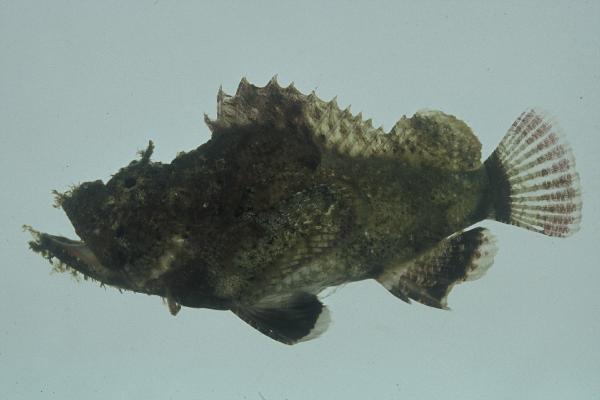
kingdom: Animalia
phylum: Chordata
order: Scorpaeniformes
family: Scorpaenidae
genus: Scorpaenopsis
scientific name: Scorpaenopsis diabolus
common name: False stonefish
